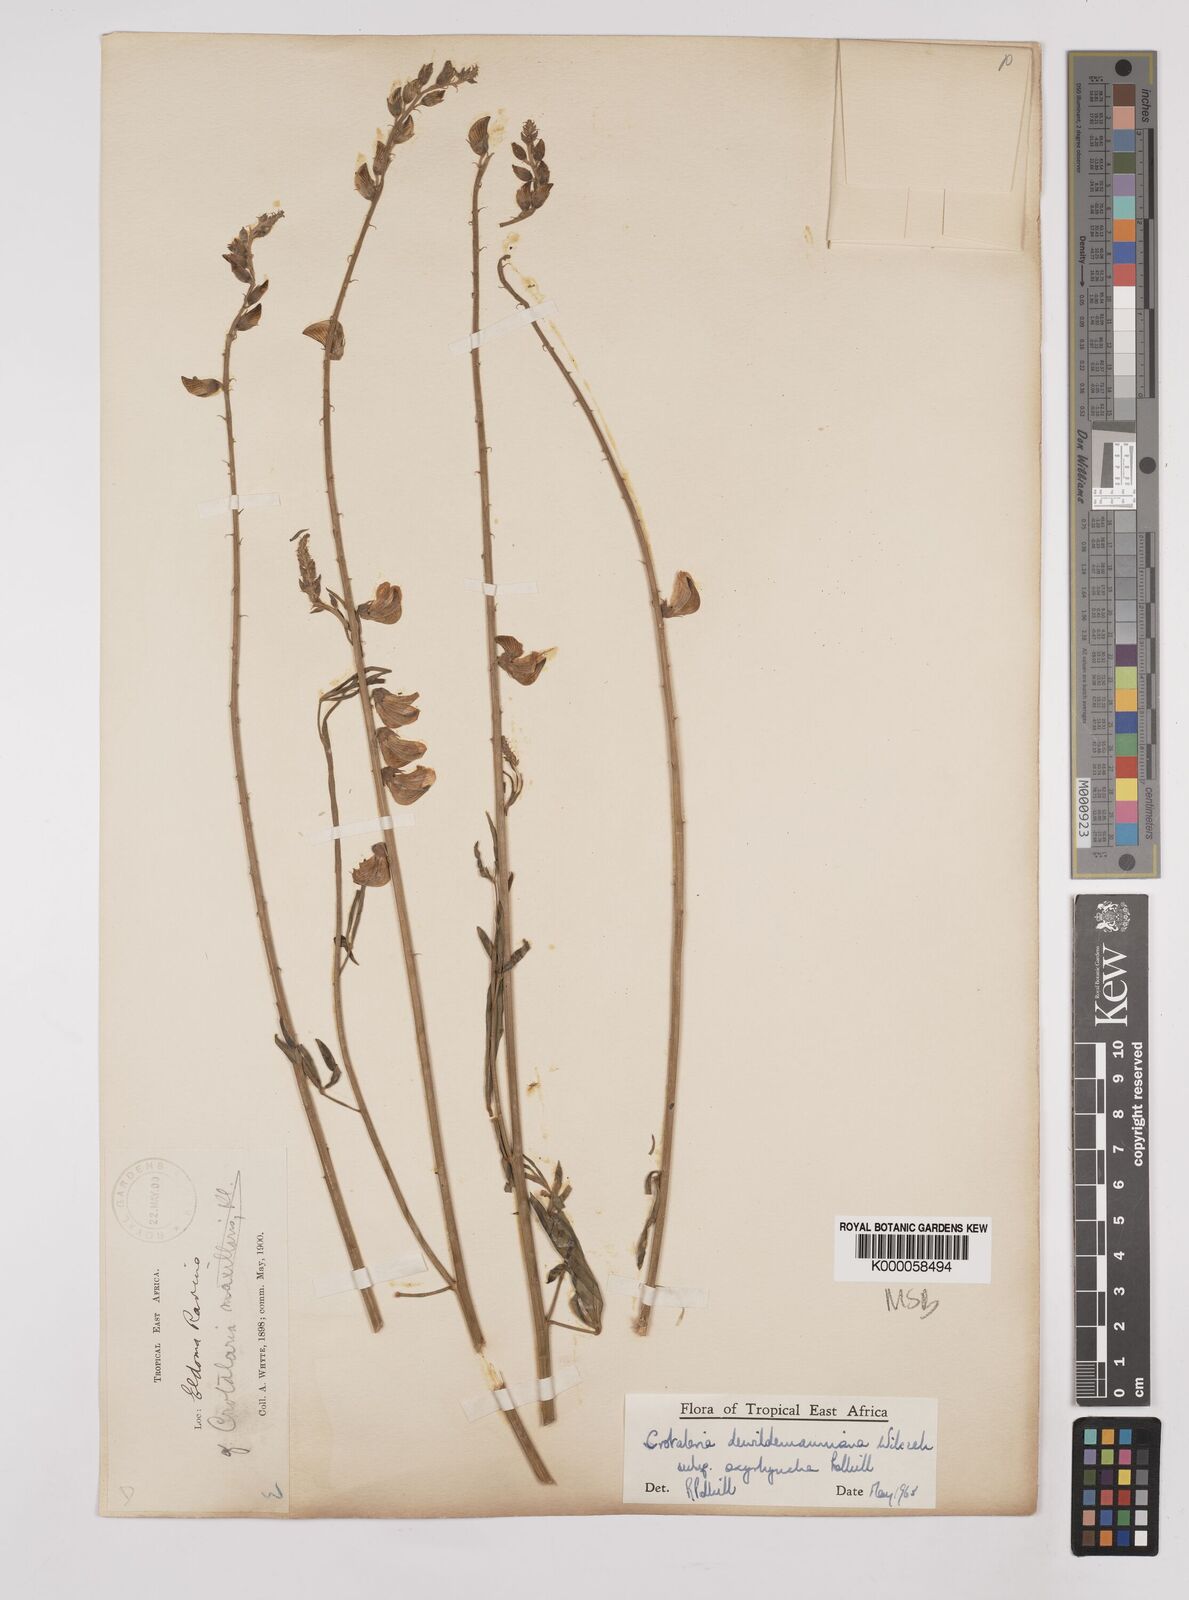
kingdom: Plantae
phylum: Tracheophyta
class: Magnoliopsida
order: Fabales
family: Fabaceae
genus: Crotalaria
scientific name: Crotalaria dewildemaniana
